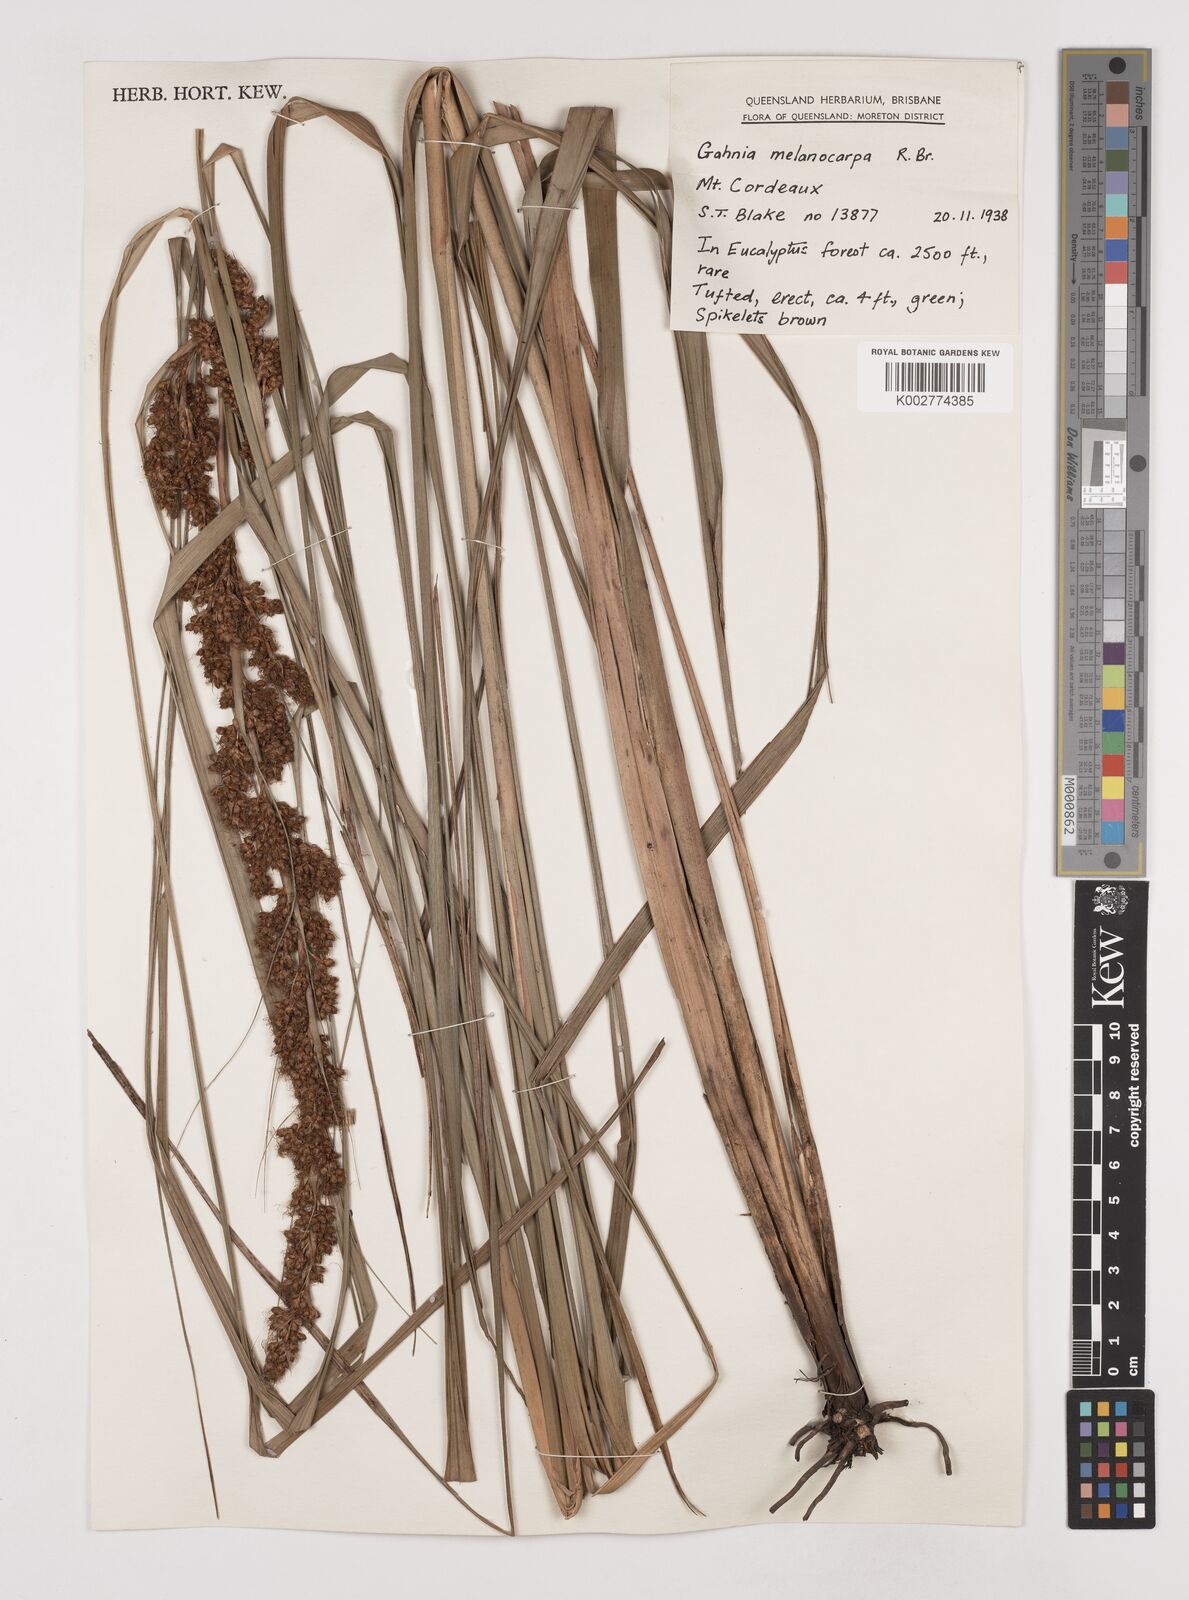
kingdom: Plantae
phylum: Tracheophyta
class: Liliopsida
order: Poales
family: Cyperaceae
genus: Gahnia
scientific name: Gahnia melanocarpa
